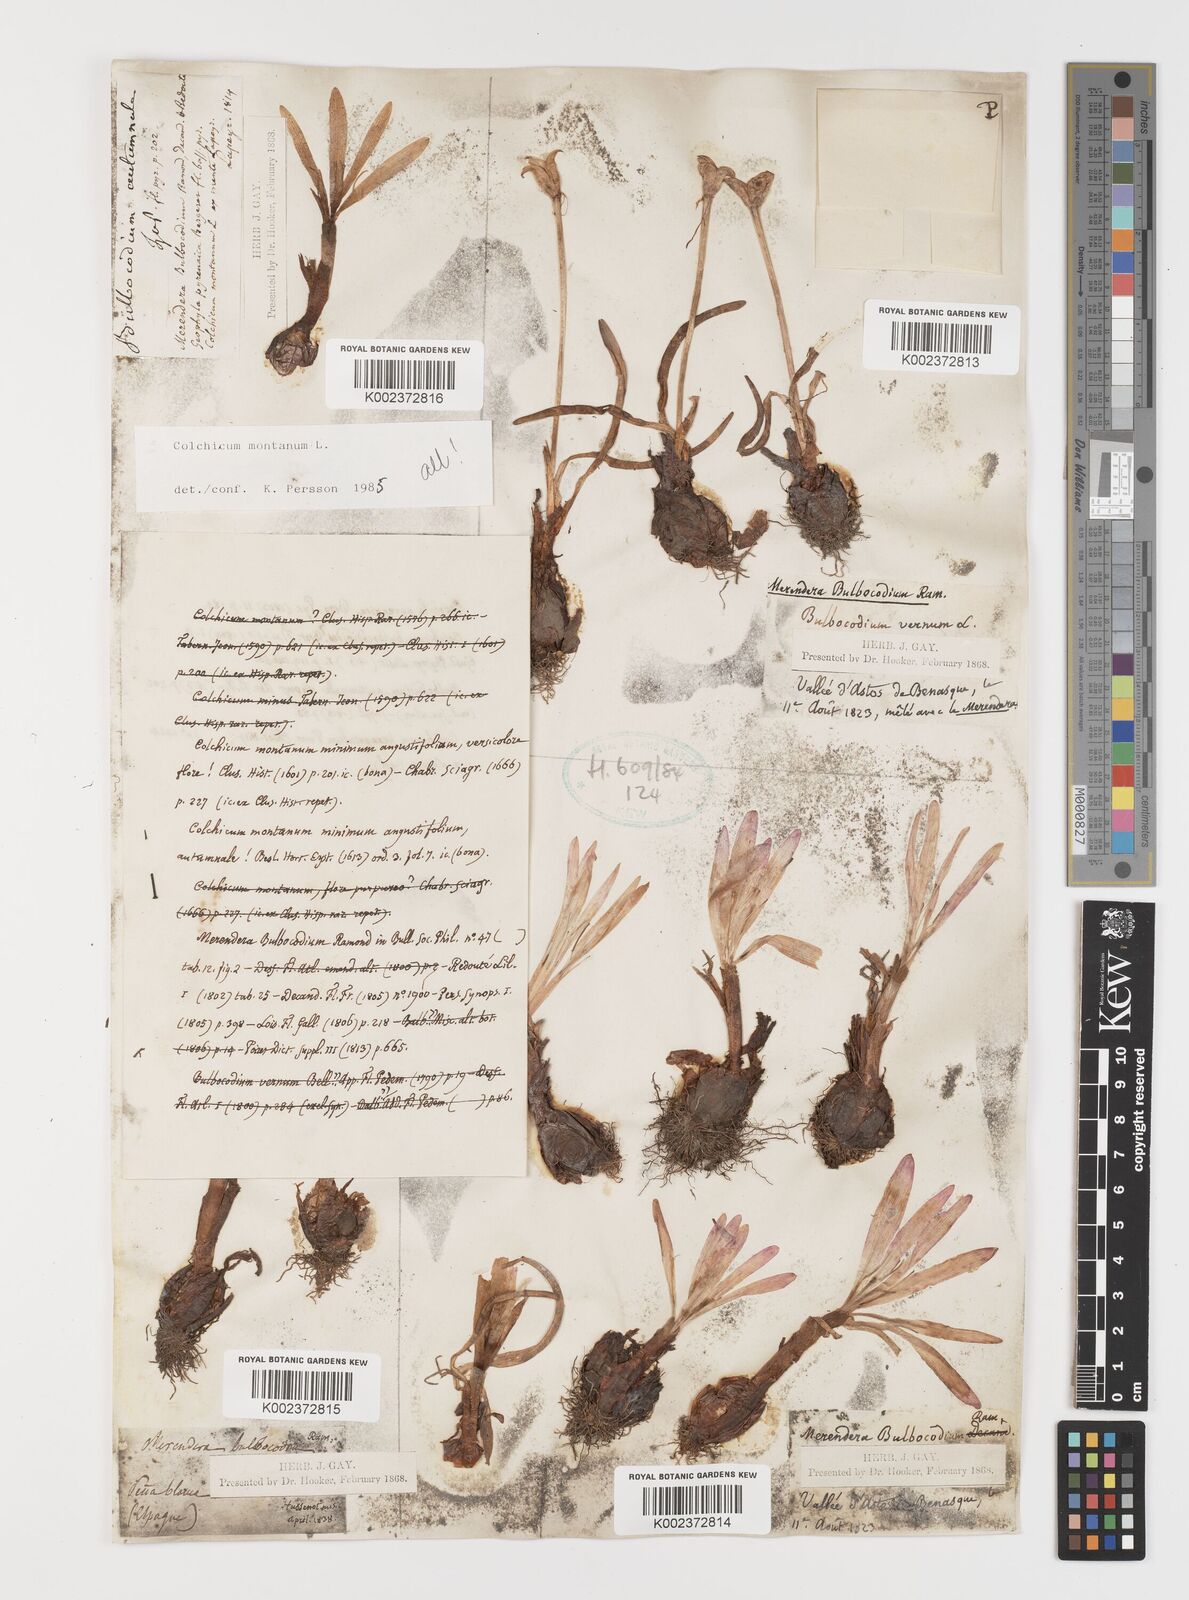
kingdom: Plantae
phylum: Tracheophyta
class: Liliopsida
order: Liliales
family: Colchicaceae
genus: Colchicum
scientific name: Colchicum montanum
